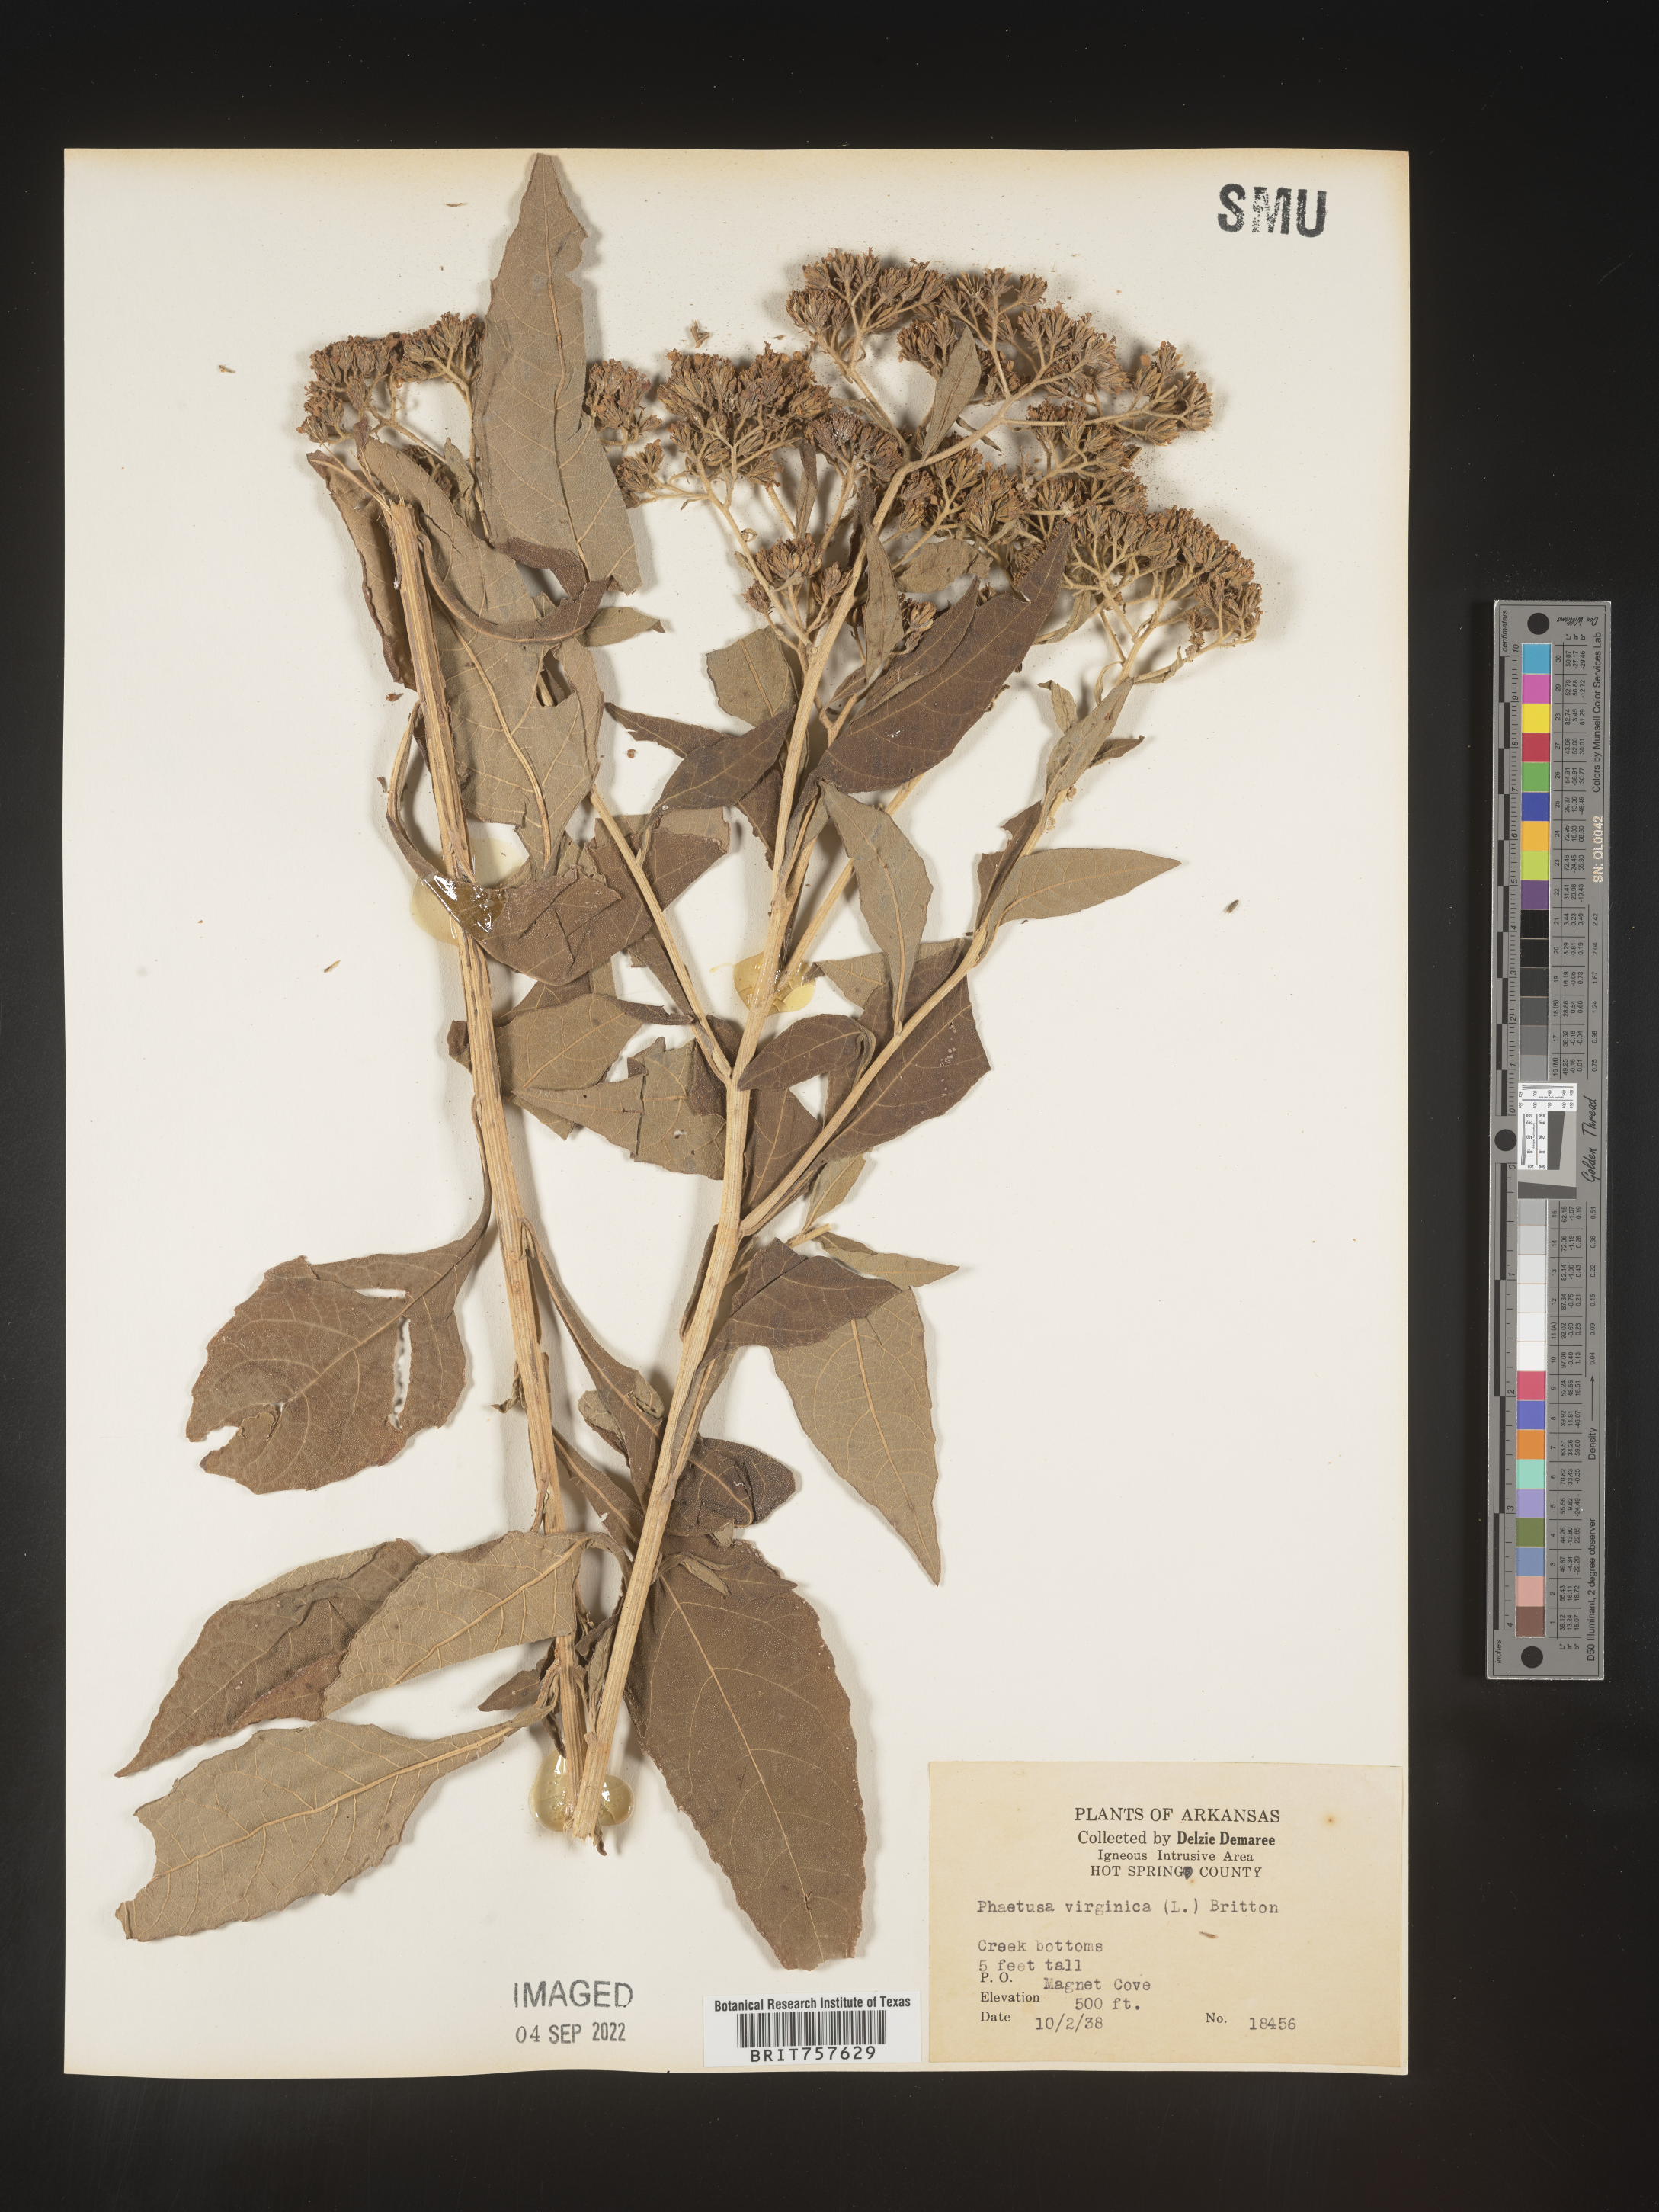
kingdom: Plantae
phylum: Tracheophyta
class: Magnoliopsida
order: Asterales
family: Asteraceae
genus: Verbesina
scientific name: Verbesina virginica
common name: Frostweed
